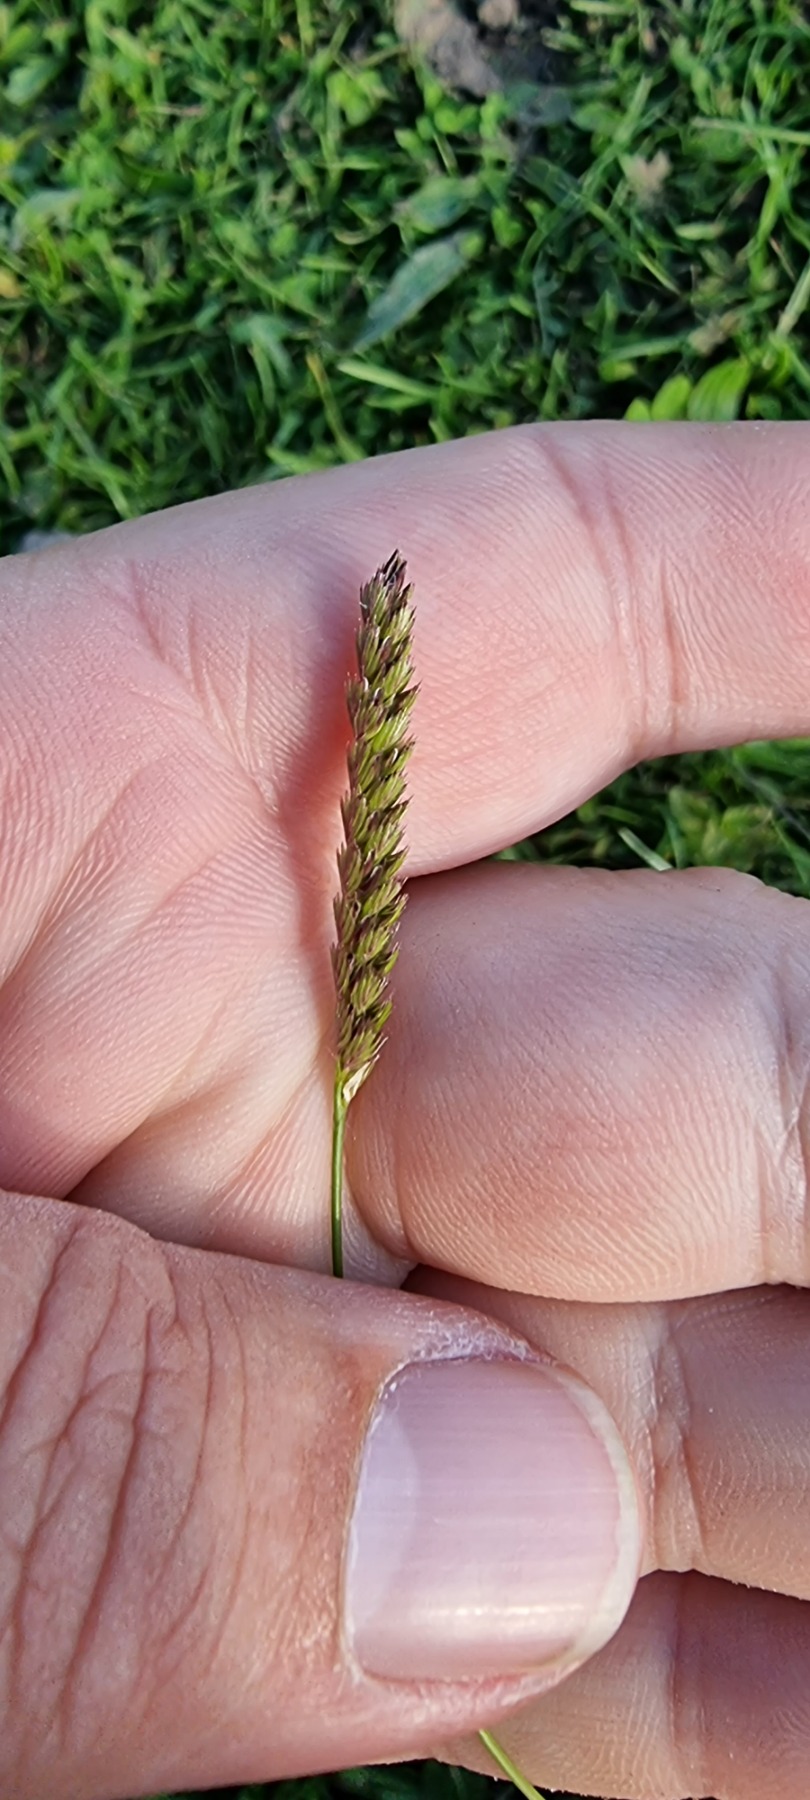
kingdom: Plantae
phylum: Tracheophyta
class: Liliopsida
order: Poales
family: Poaceae
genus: Cynosurus
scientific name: Cynosurus cristatus
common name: Kamgræs
